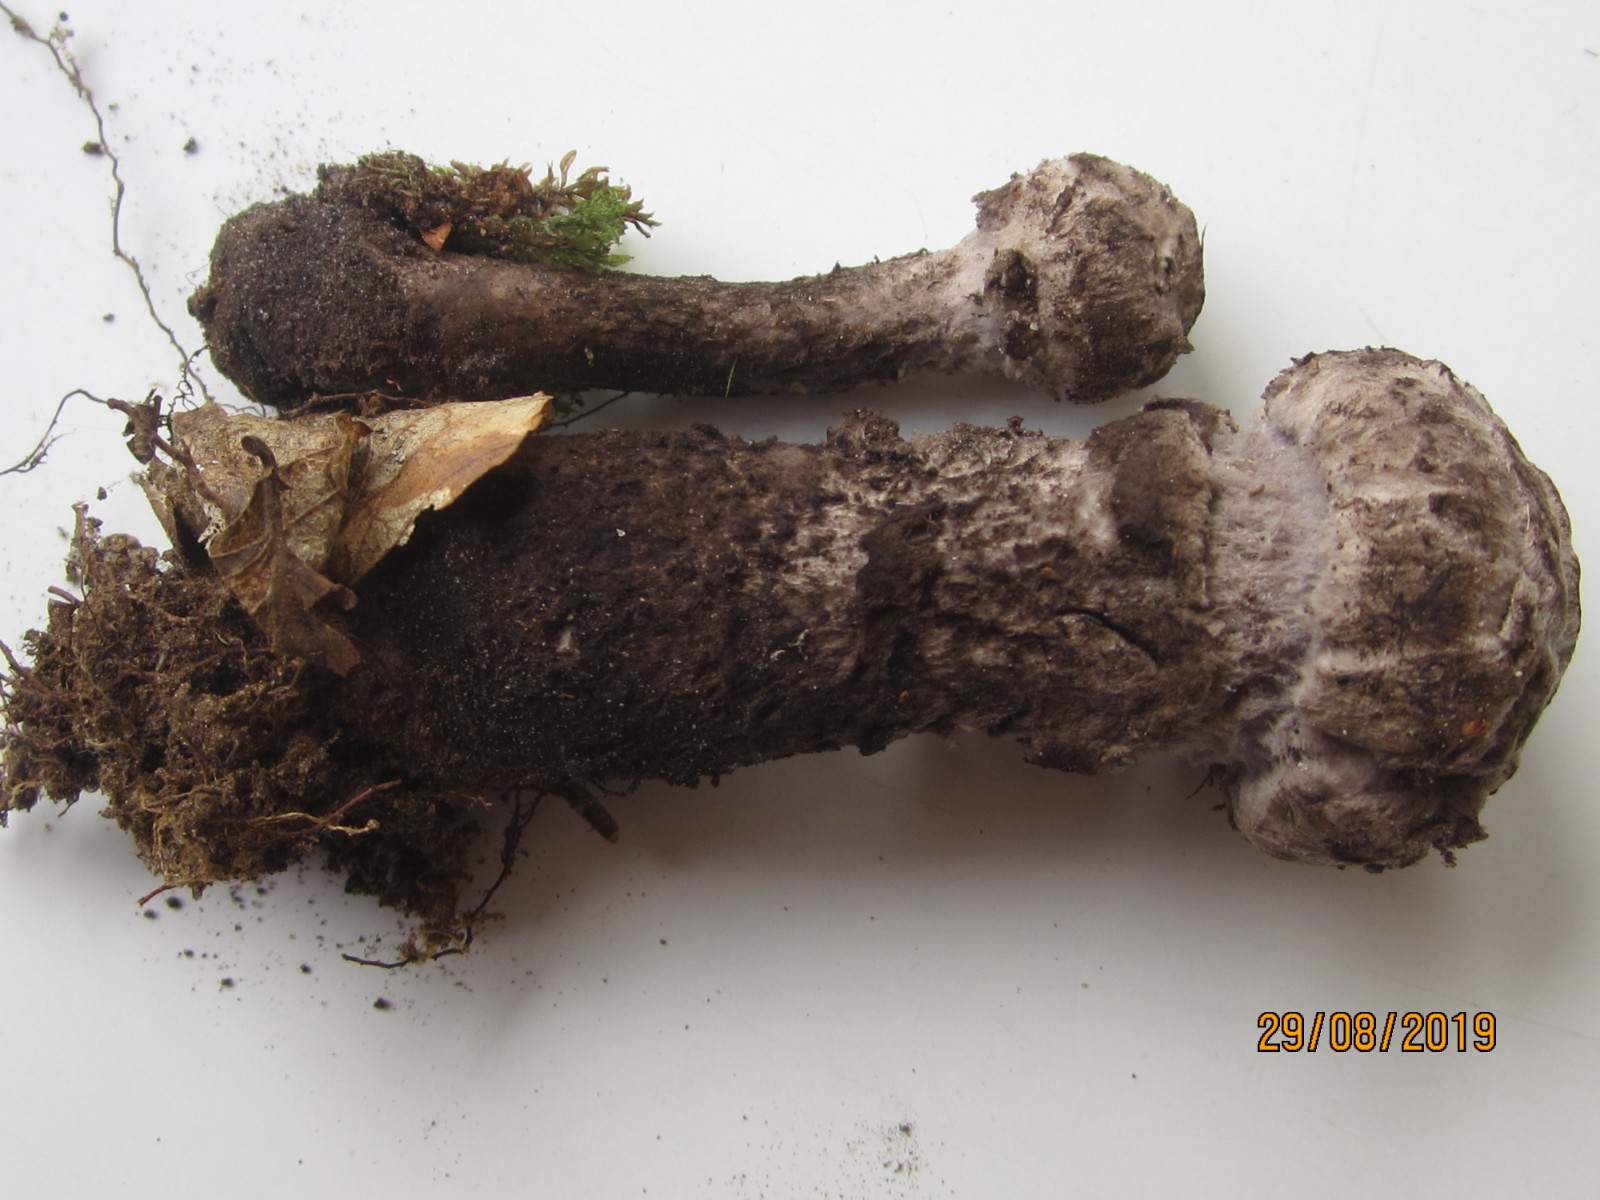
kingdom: Fungi
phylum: Basidiomycota
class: Agaricomycetes
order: Boletales
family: Boletaceae
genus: Strobilomyces
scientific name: Strobilomyces strobilaceus
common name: koglerørhat
